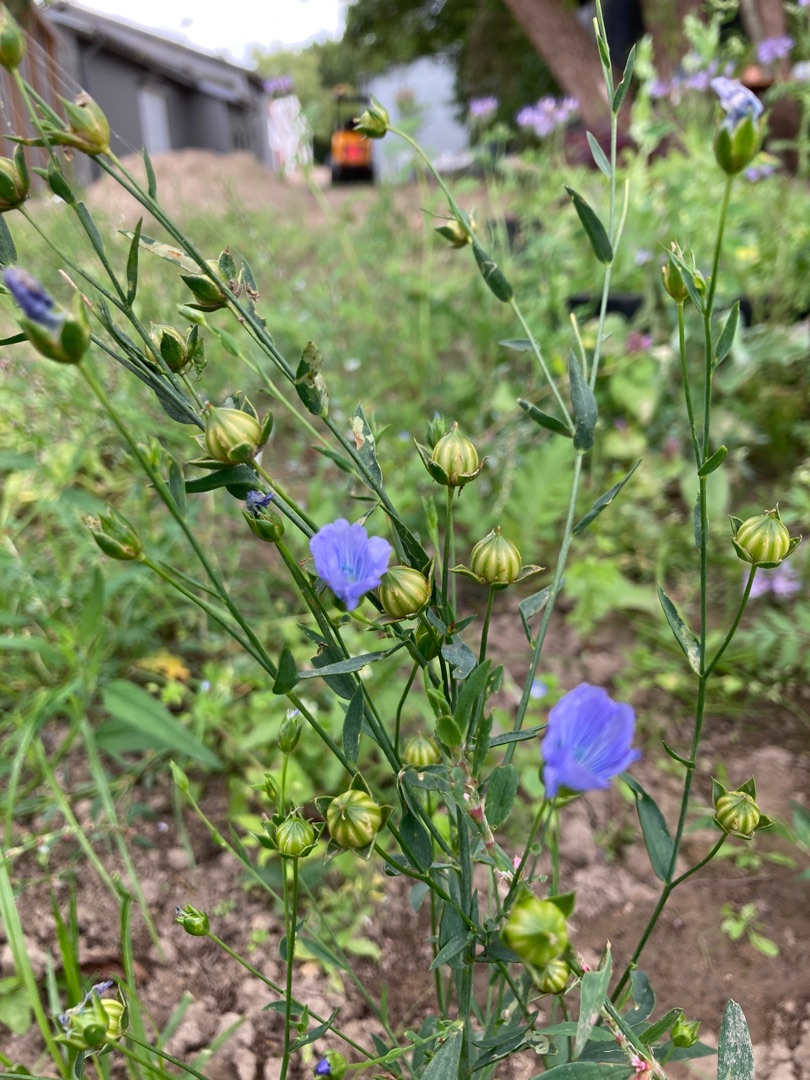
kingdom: Plantae
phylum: Tracheophyta
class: Magnoliopsida
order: Malpighiales
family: Linaceae
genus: Linum
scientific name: Linum usitatissimum
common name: Almindelig hør
